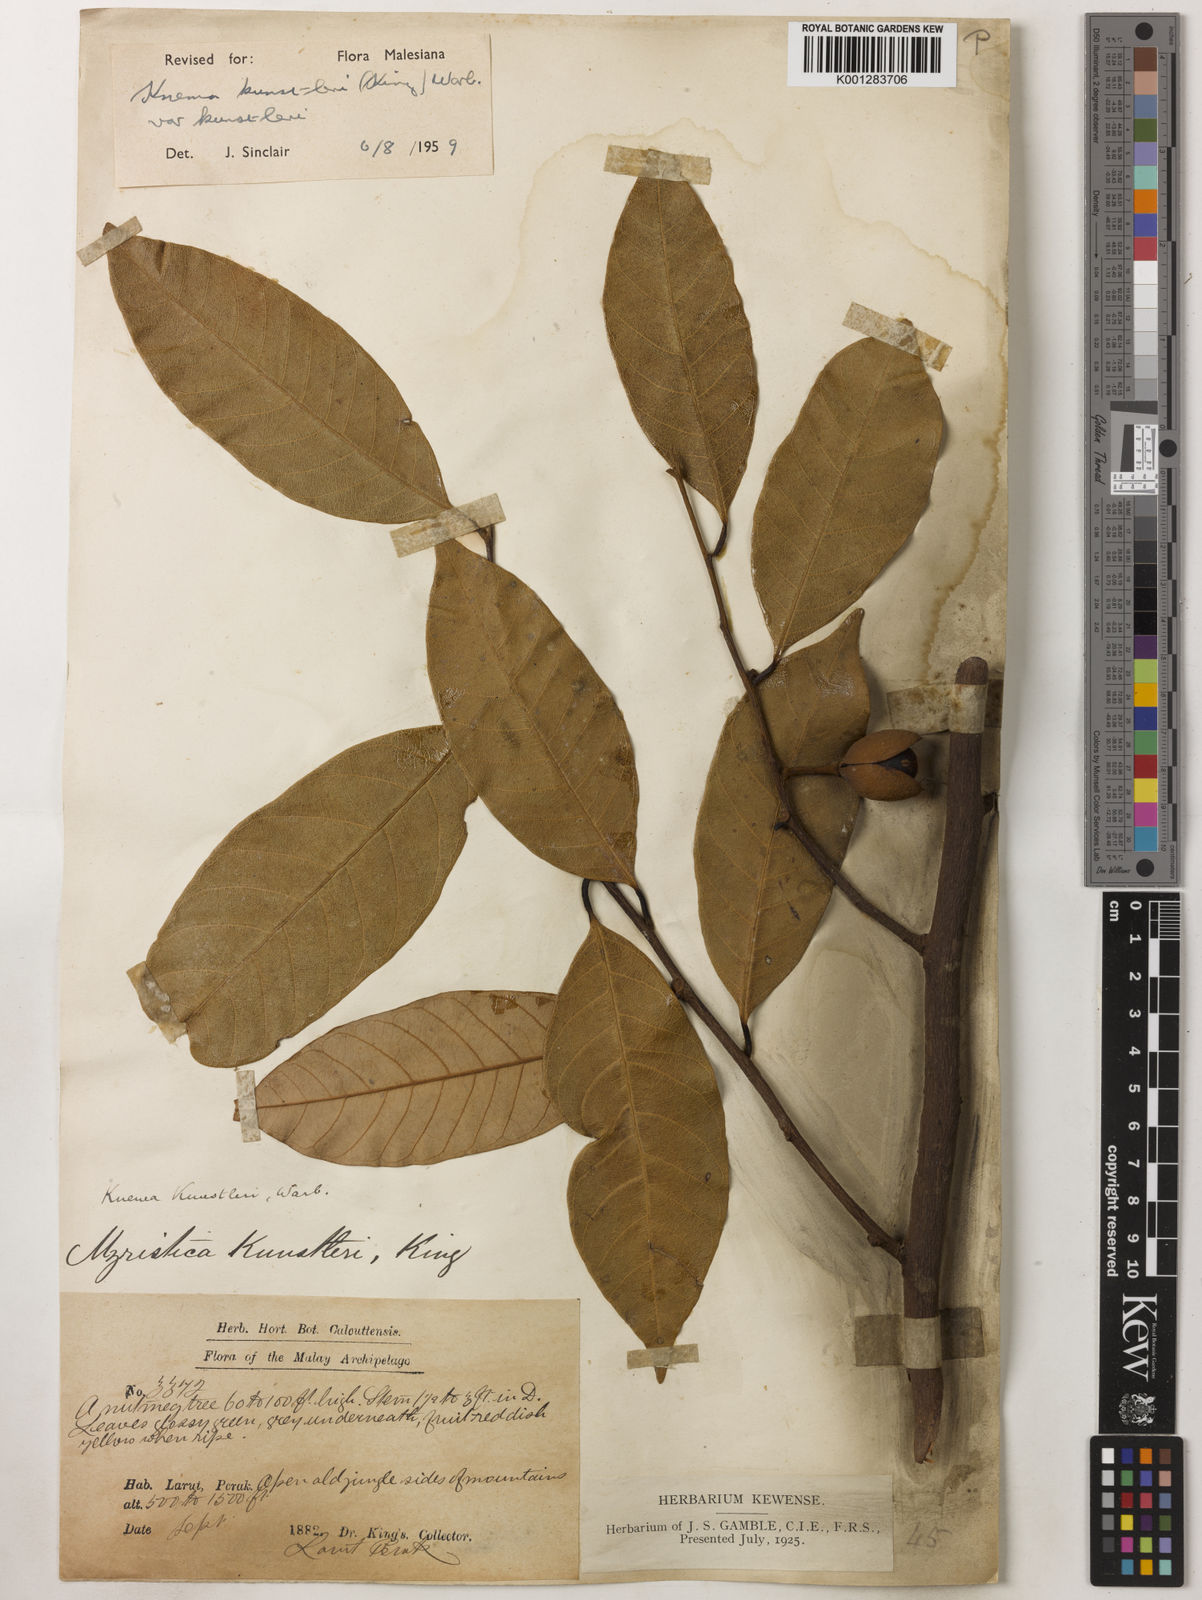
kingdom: Plantae
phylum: Tracheophyta
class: Magnoliopsida
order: Magnoliales
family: Myristicaceae
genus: Knema
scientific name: Knema kunstleri
